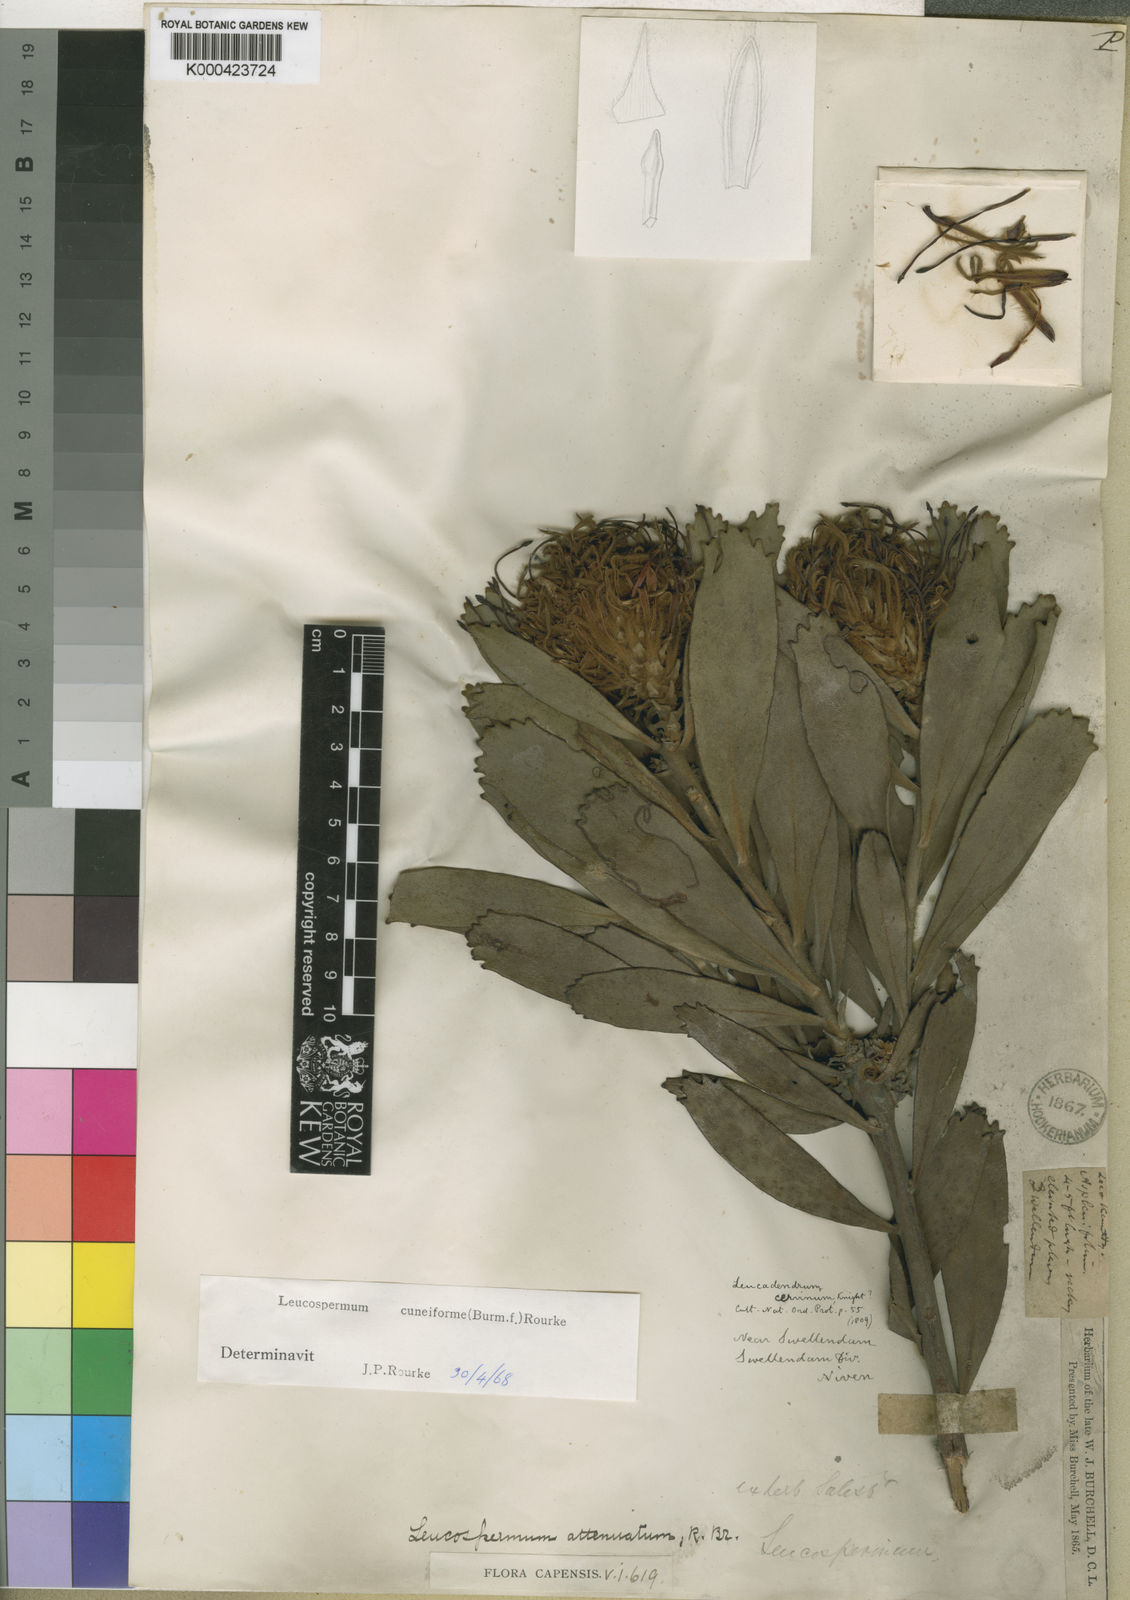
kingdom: Plantae
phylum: Tracheophyta
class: Magnoliopsida
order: Proteales
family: Proteaceae
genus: Leucospermum
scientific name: Leucospermum cuneiforme
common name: Common pincushion
